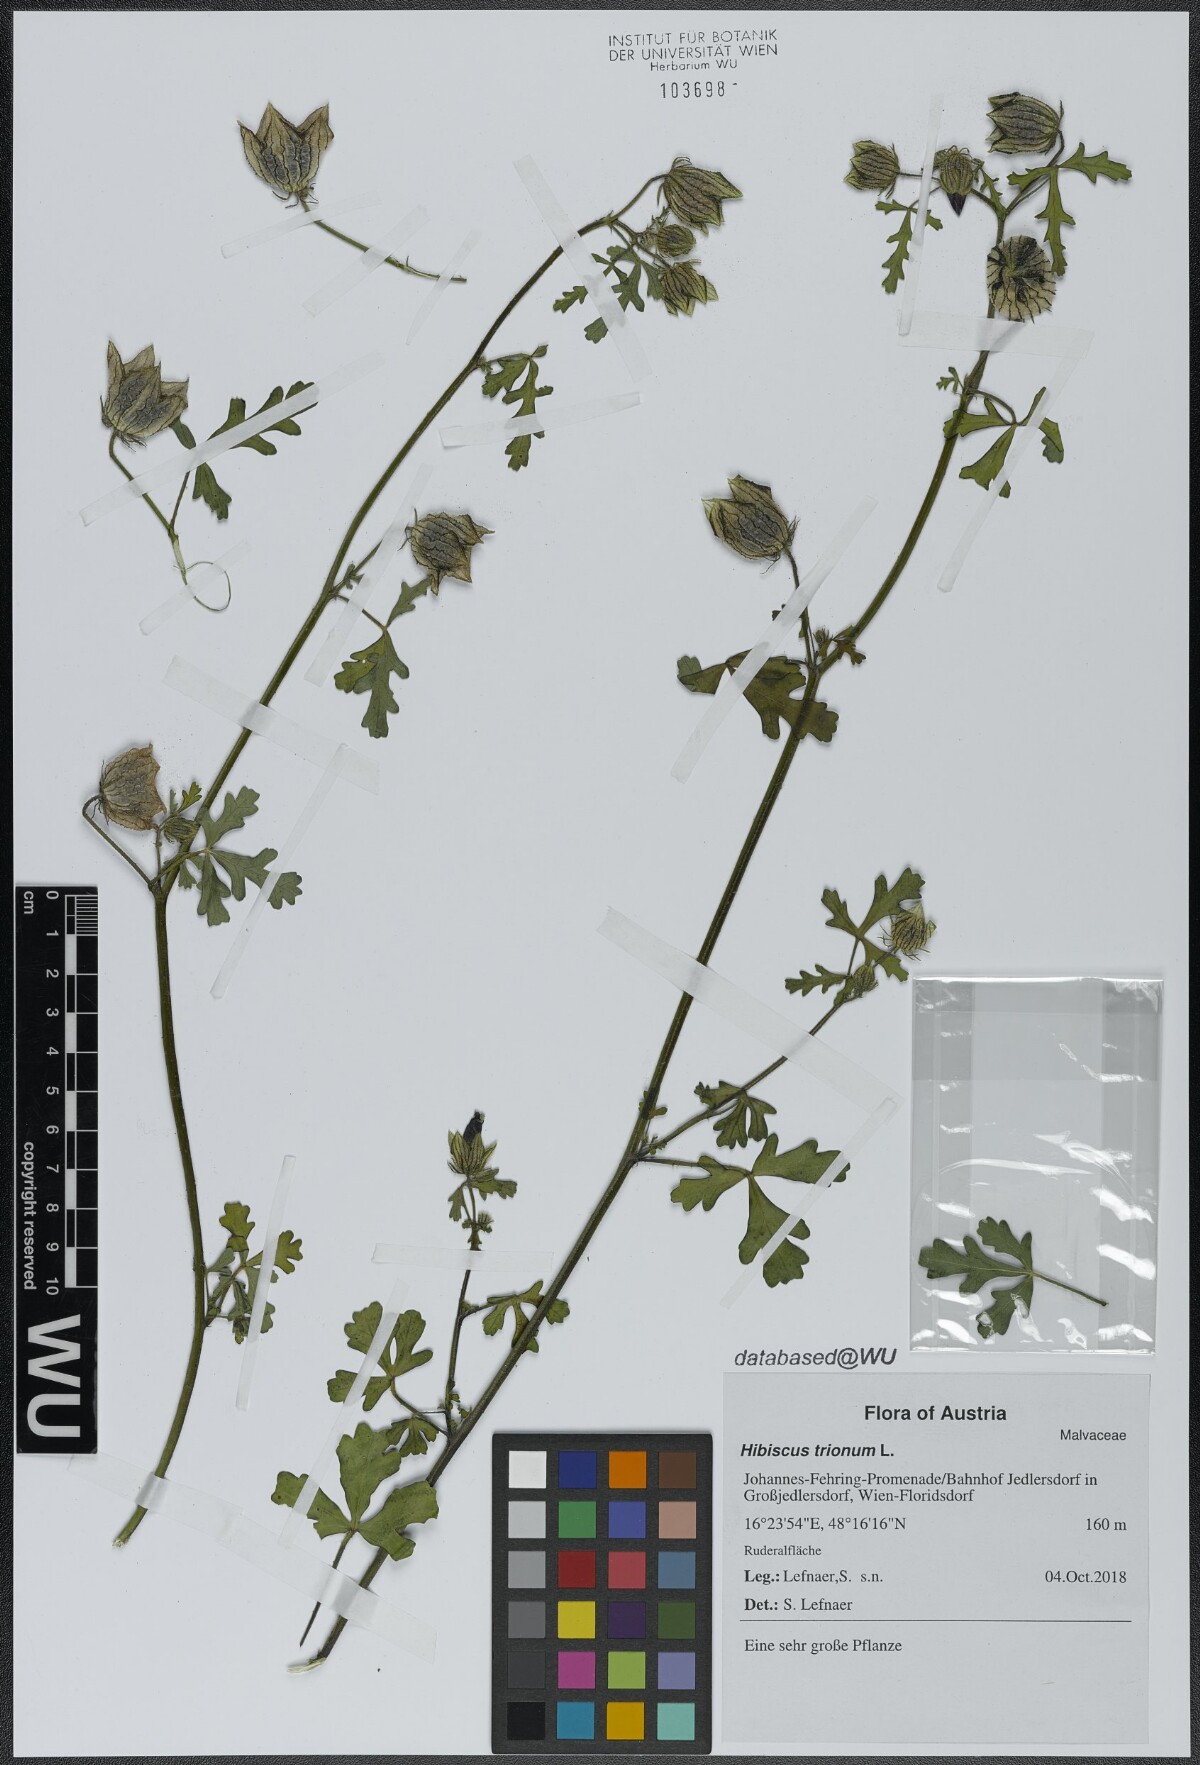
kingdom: Plantae
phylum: Tracheophyta
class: Magnoliopsida
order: Malvales
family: Malvaceae
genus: Hibiscus
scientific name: Hibiscus trionum
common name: Bladder ketmia
